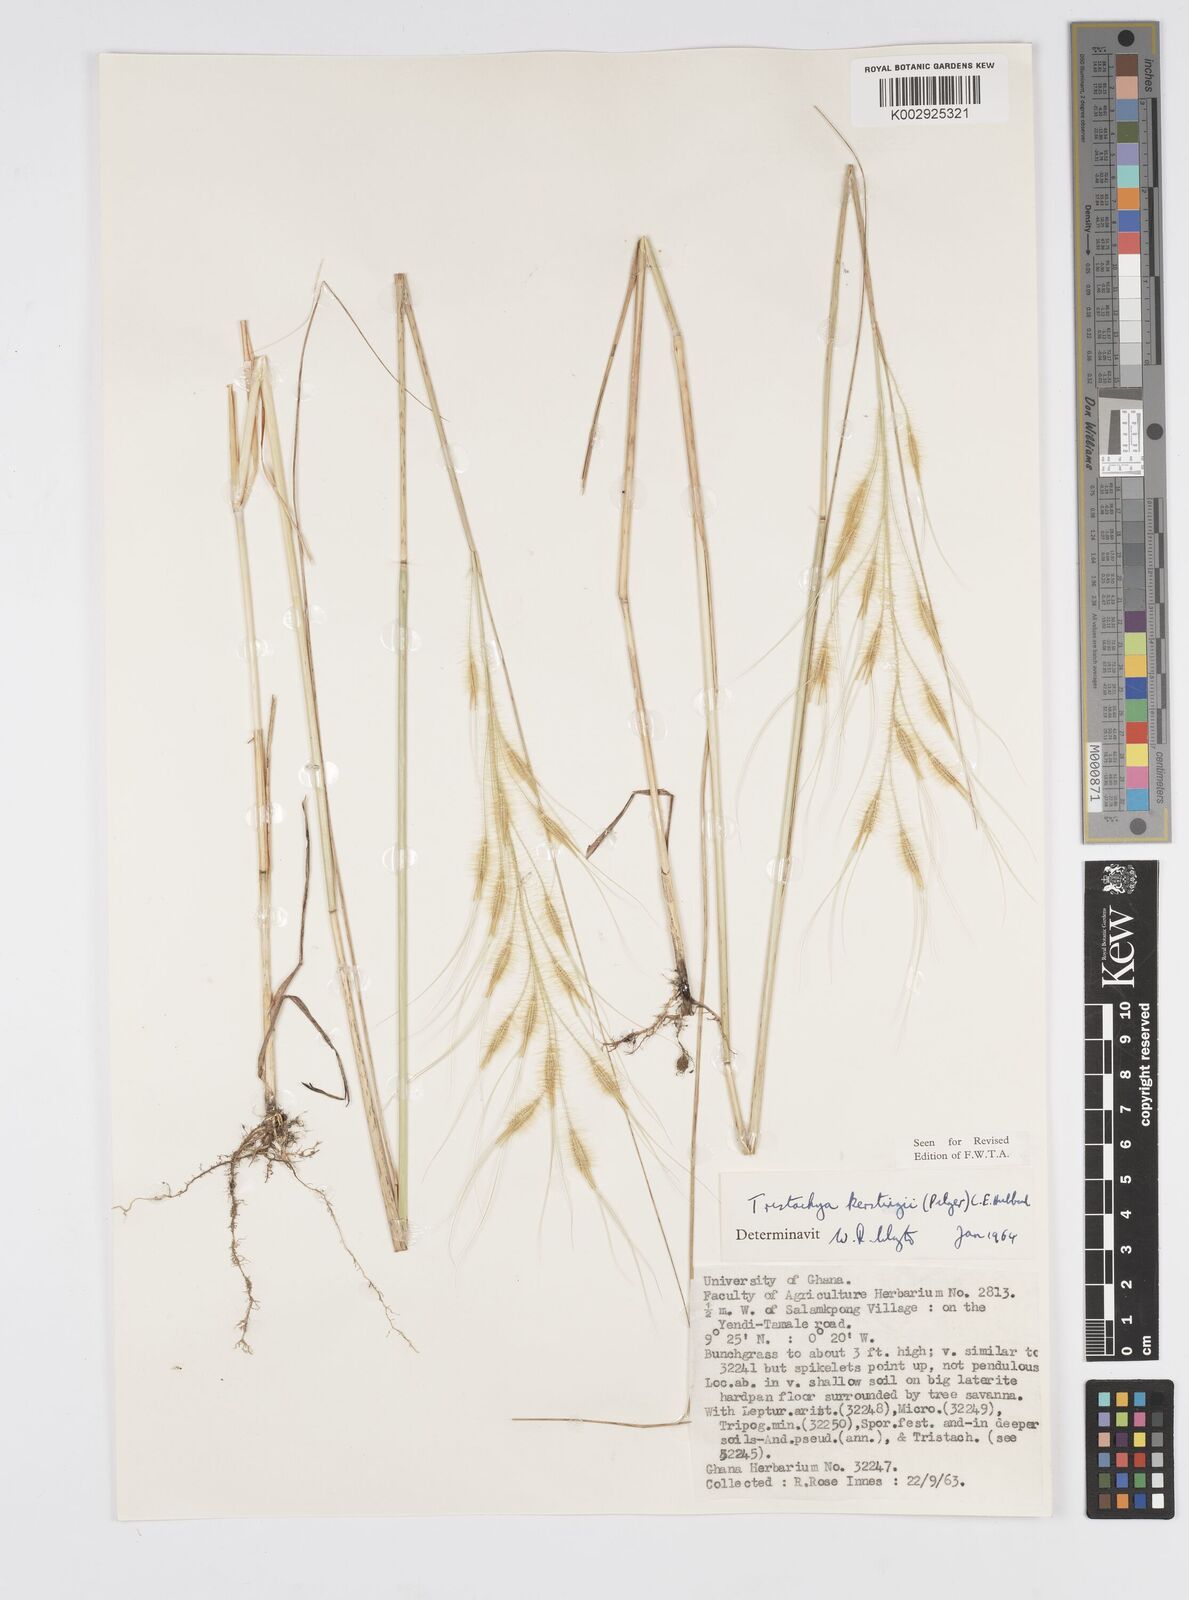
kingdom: Plantae
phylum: Tracheophyta
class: Liliopsida
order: Poales
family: Poaceae
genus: Loudetiopsis
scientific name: Loudetiopsis kerstingii
